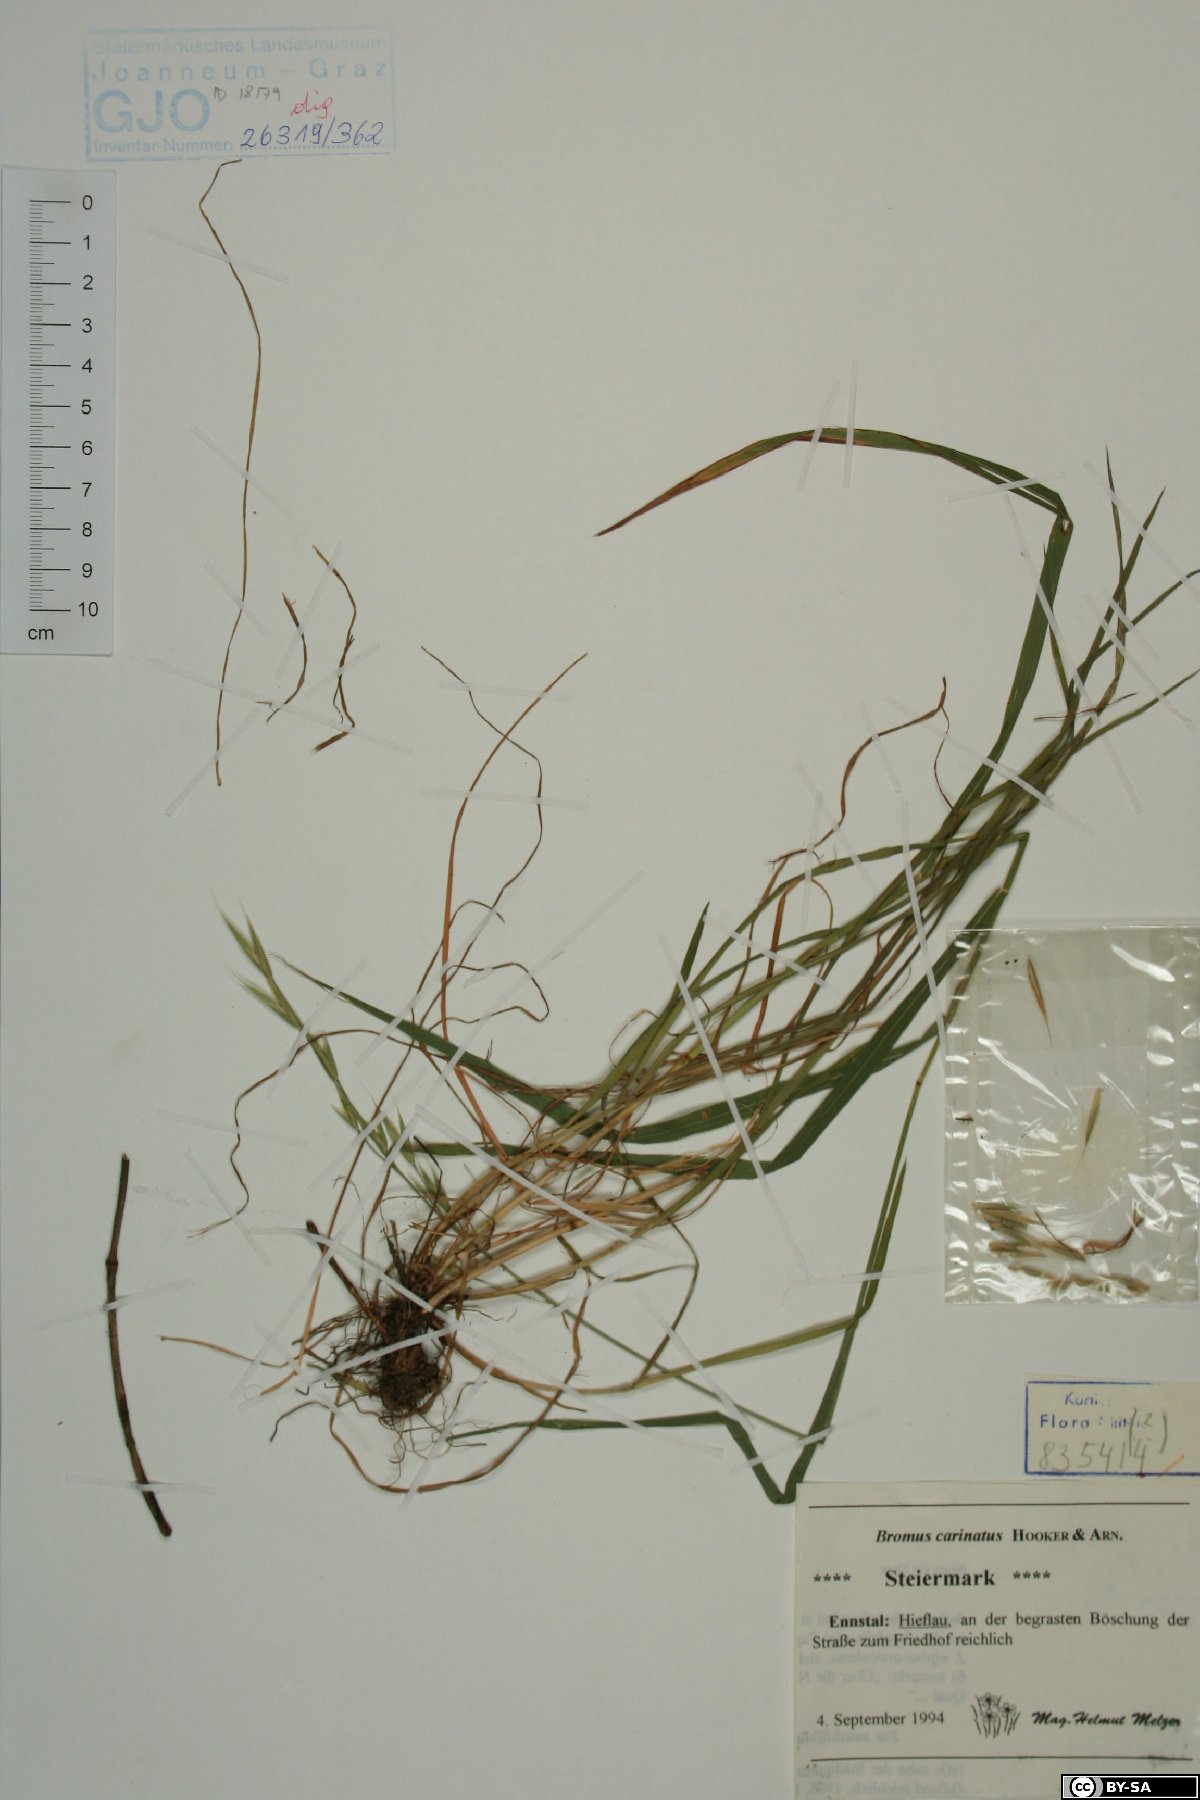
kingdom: Plantae
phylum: Tracheophyta
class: Liliopsida
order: Poales
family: Poaceae
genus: Bromus
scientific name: Bromus carinatus
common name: Mountain brome
